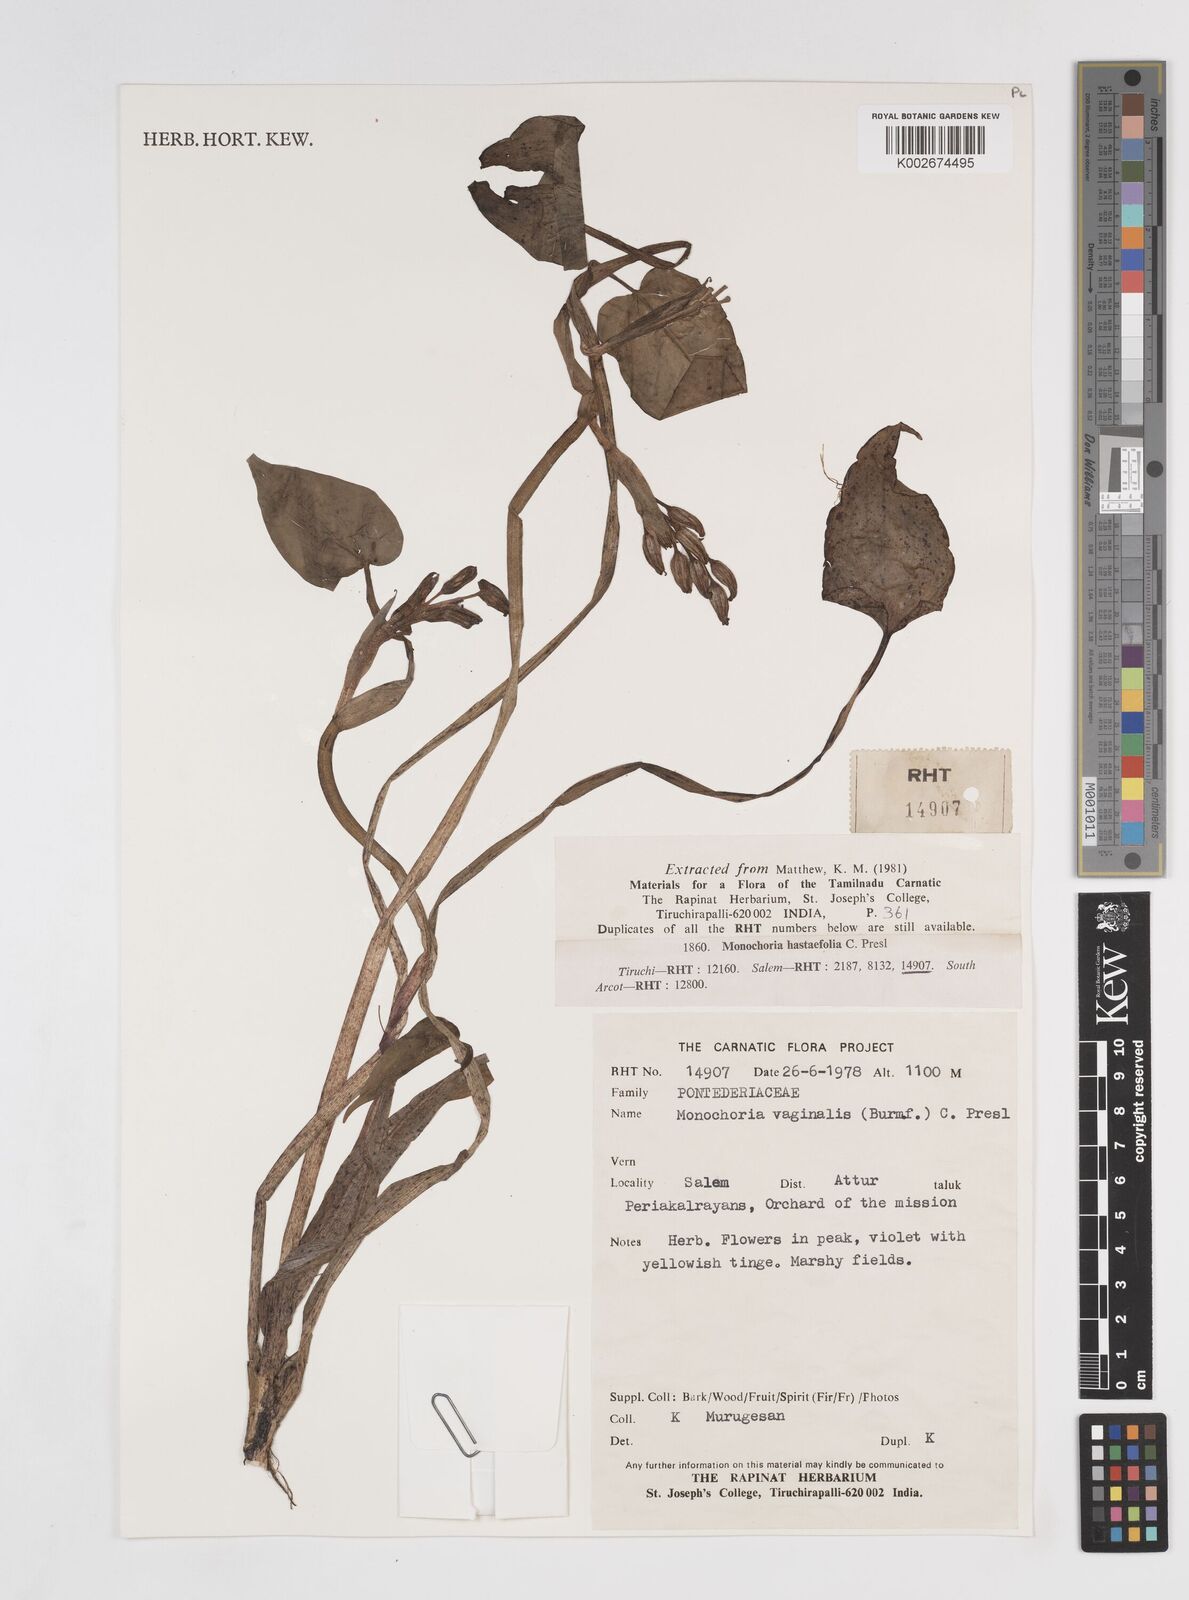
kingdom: Plantae
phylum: Tracheophyta
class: Liliopsida
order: Commelinales
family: Pontederiaceae
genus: Pontederia
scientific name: Pontederia vaginalis
